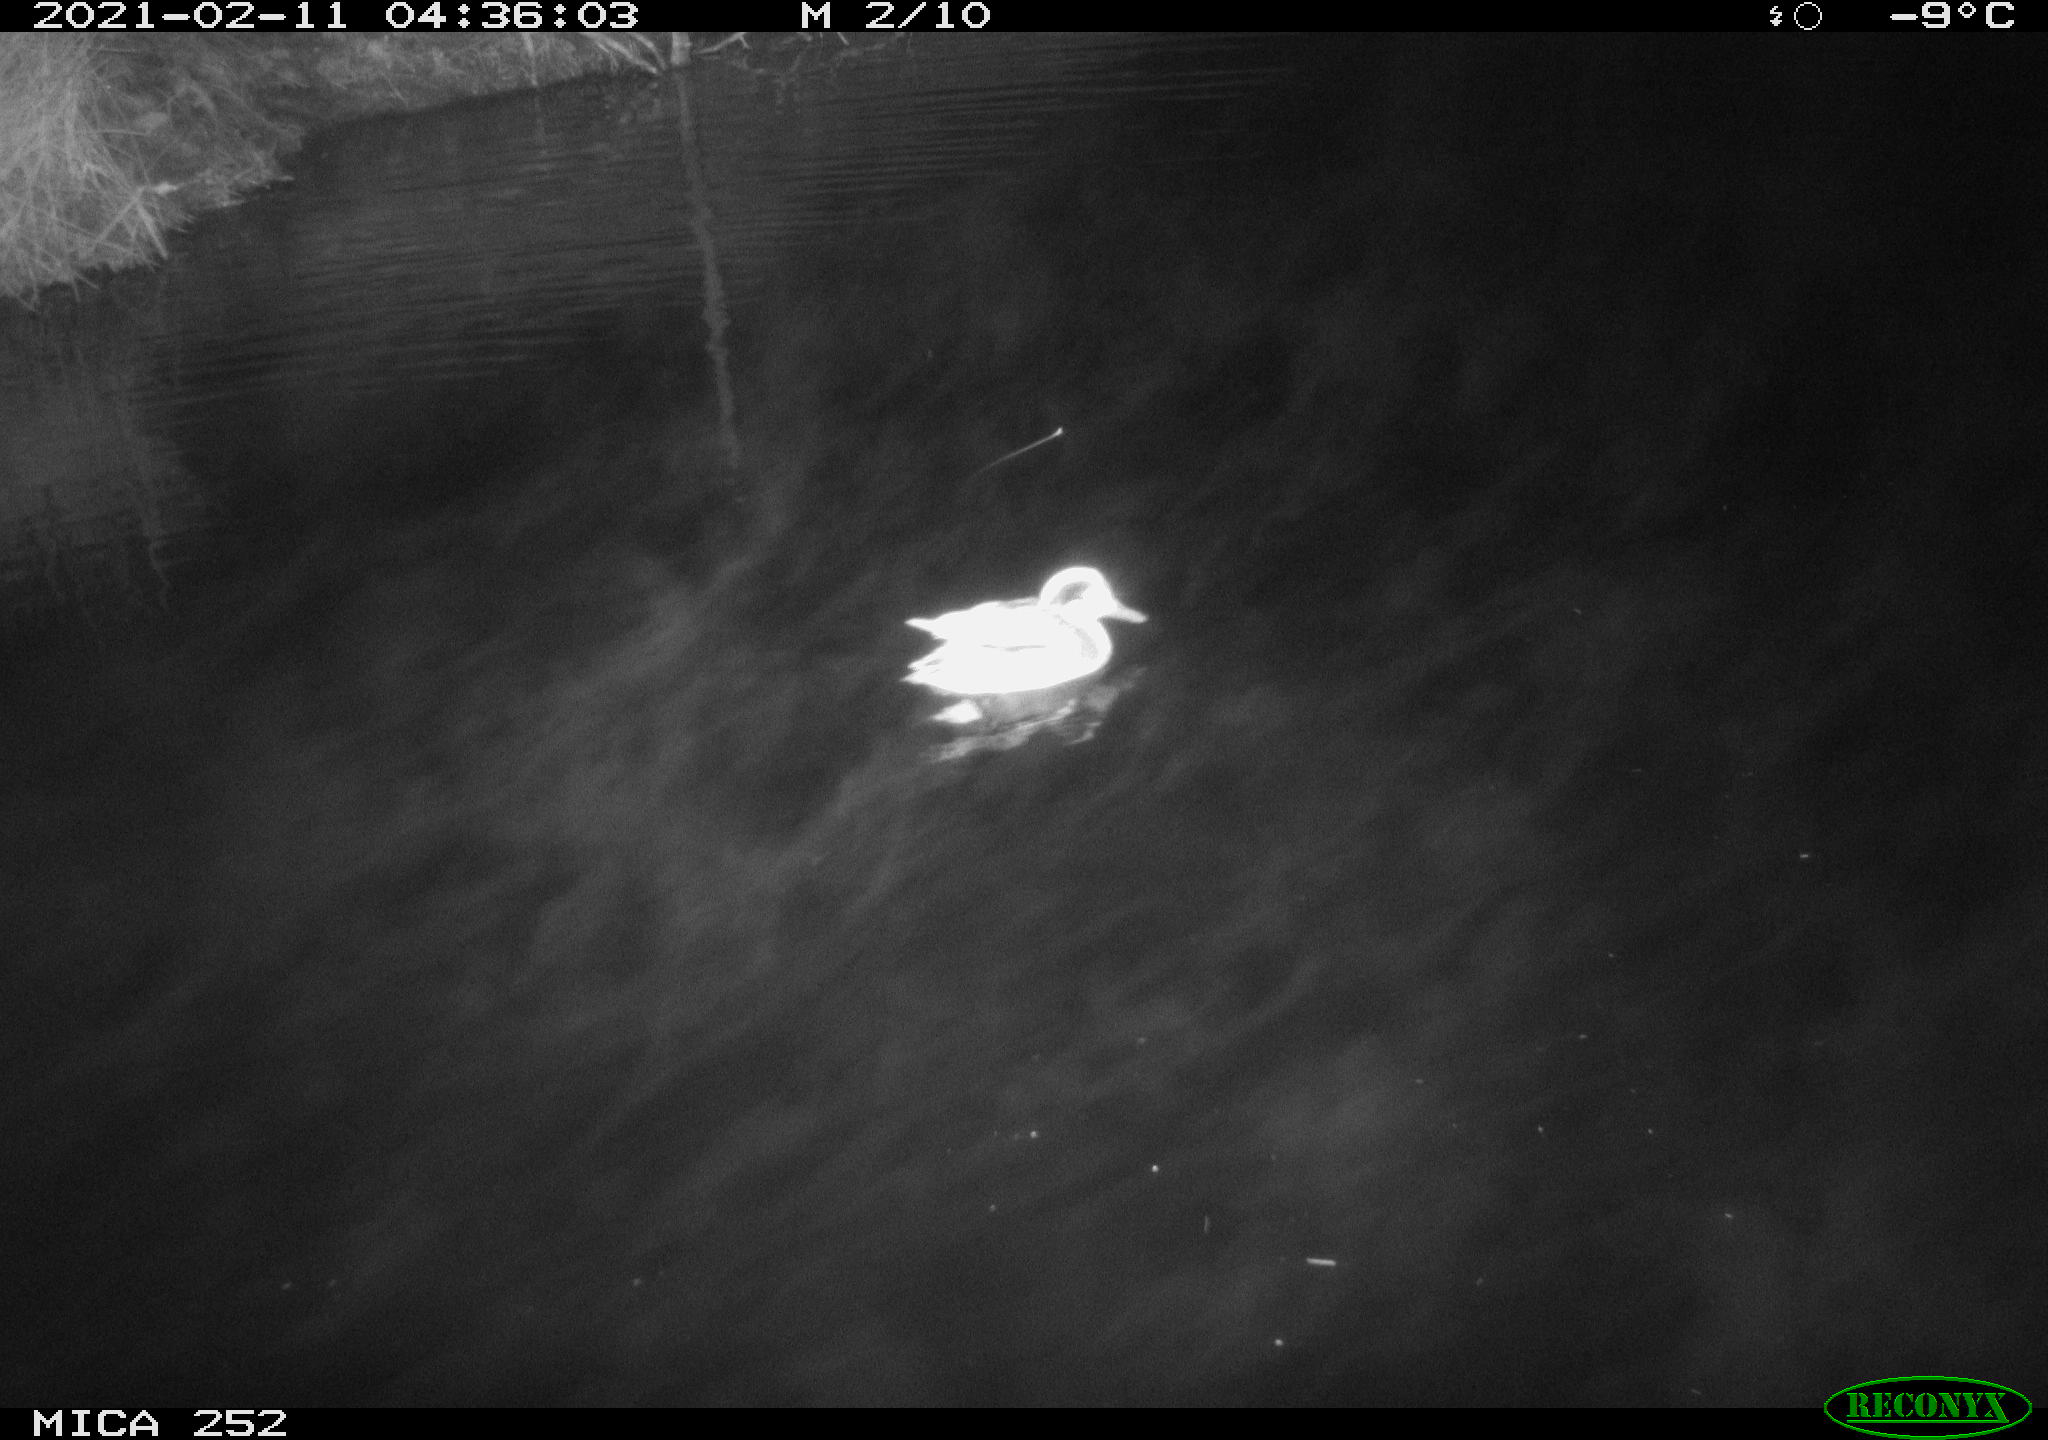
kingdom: Animalia
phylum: Chordata
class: Aves
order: Anseriformes
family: Anatidae
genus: Anas
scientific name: Anas crecca
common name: Eurasian teal
